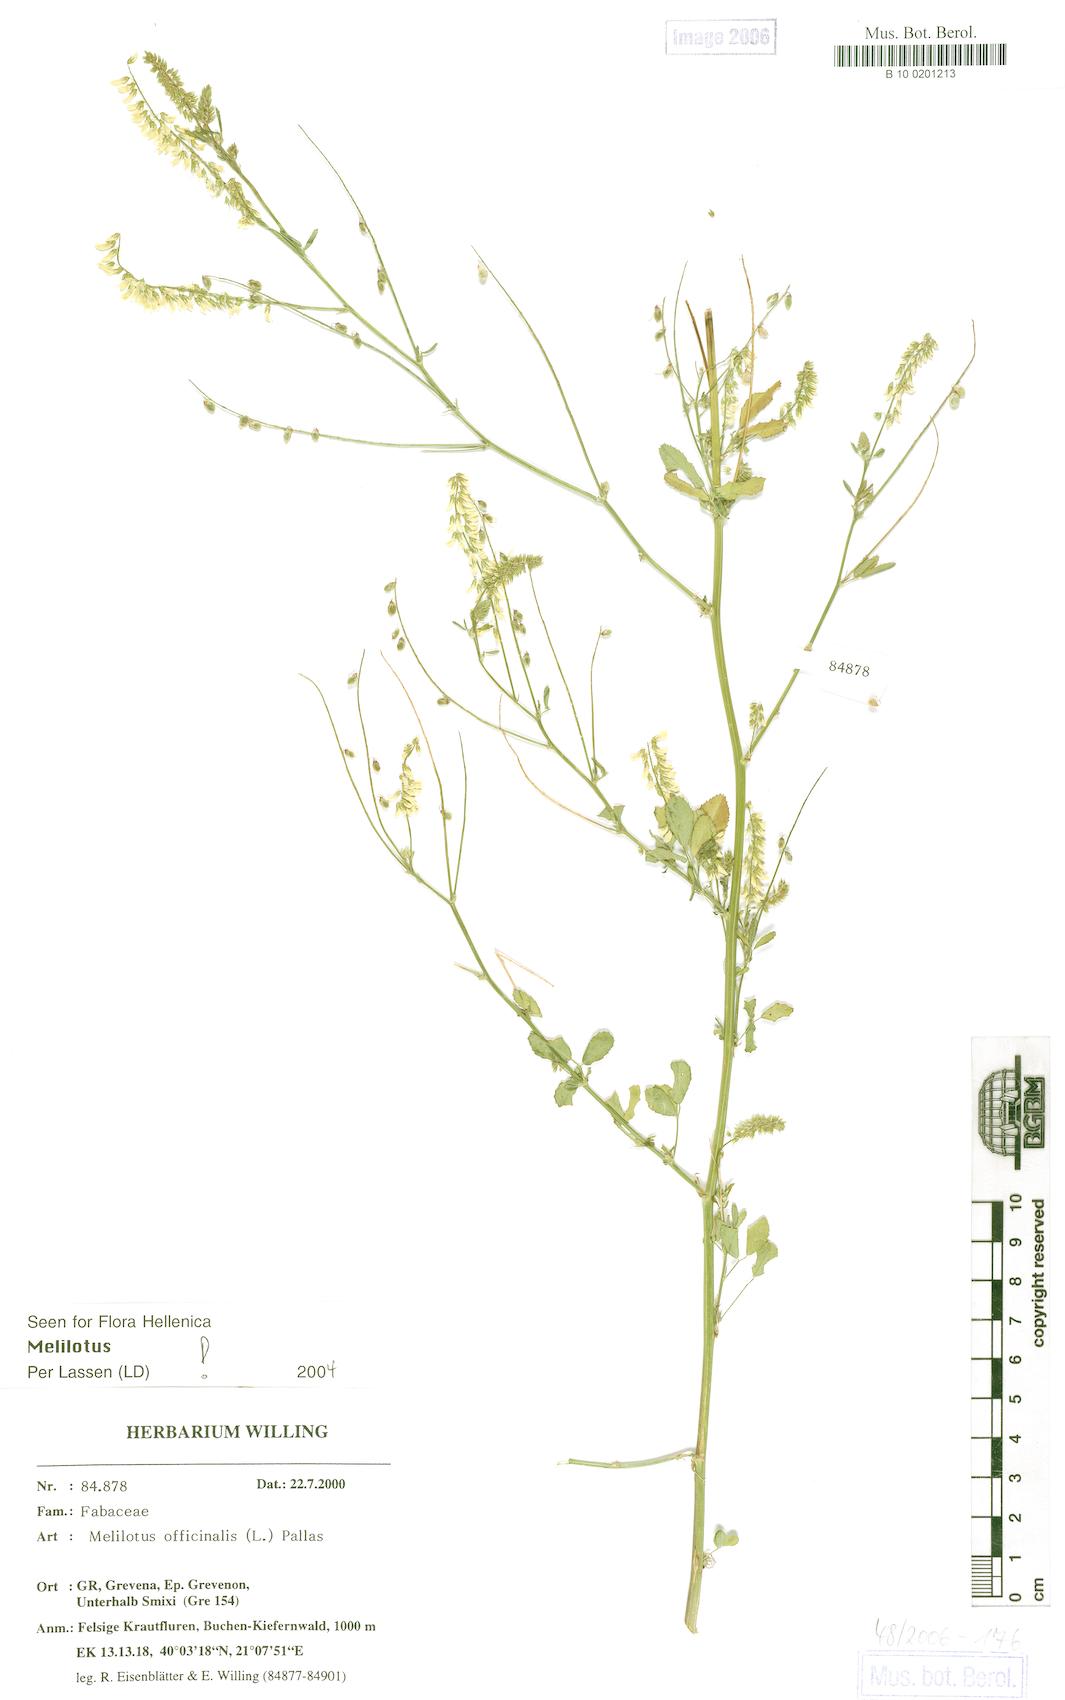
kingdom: Plantae
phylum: Tracheophyta
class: Magnoliopsida
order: Fabales
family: Fabaceae
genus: Melilotus
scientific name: Melilotus officinalis
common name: Sweetclover
